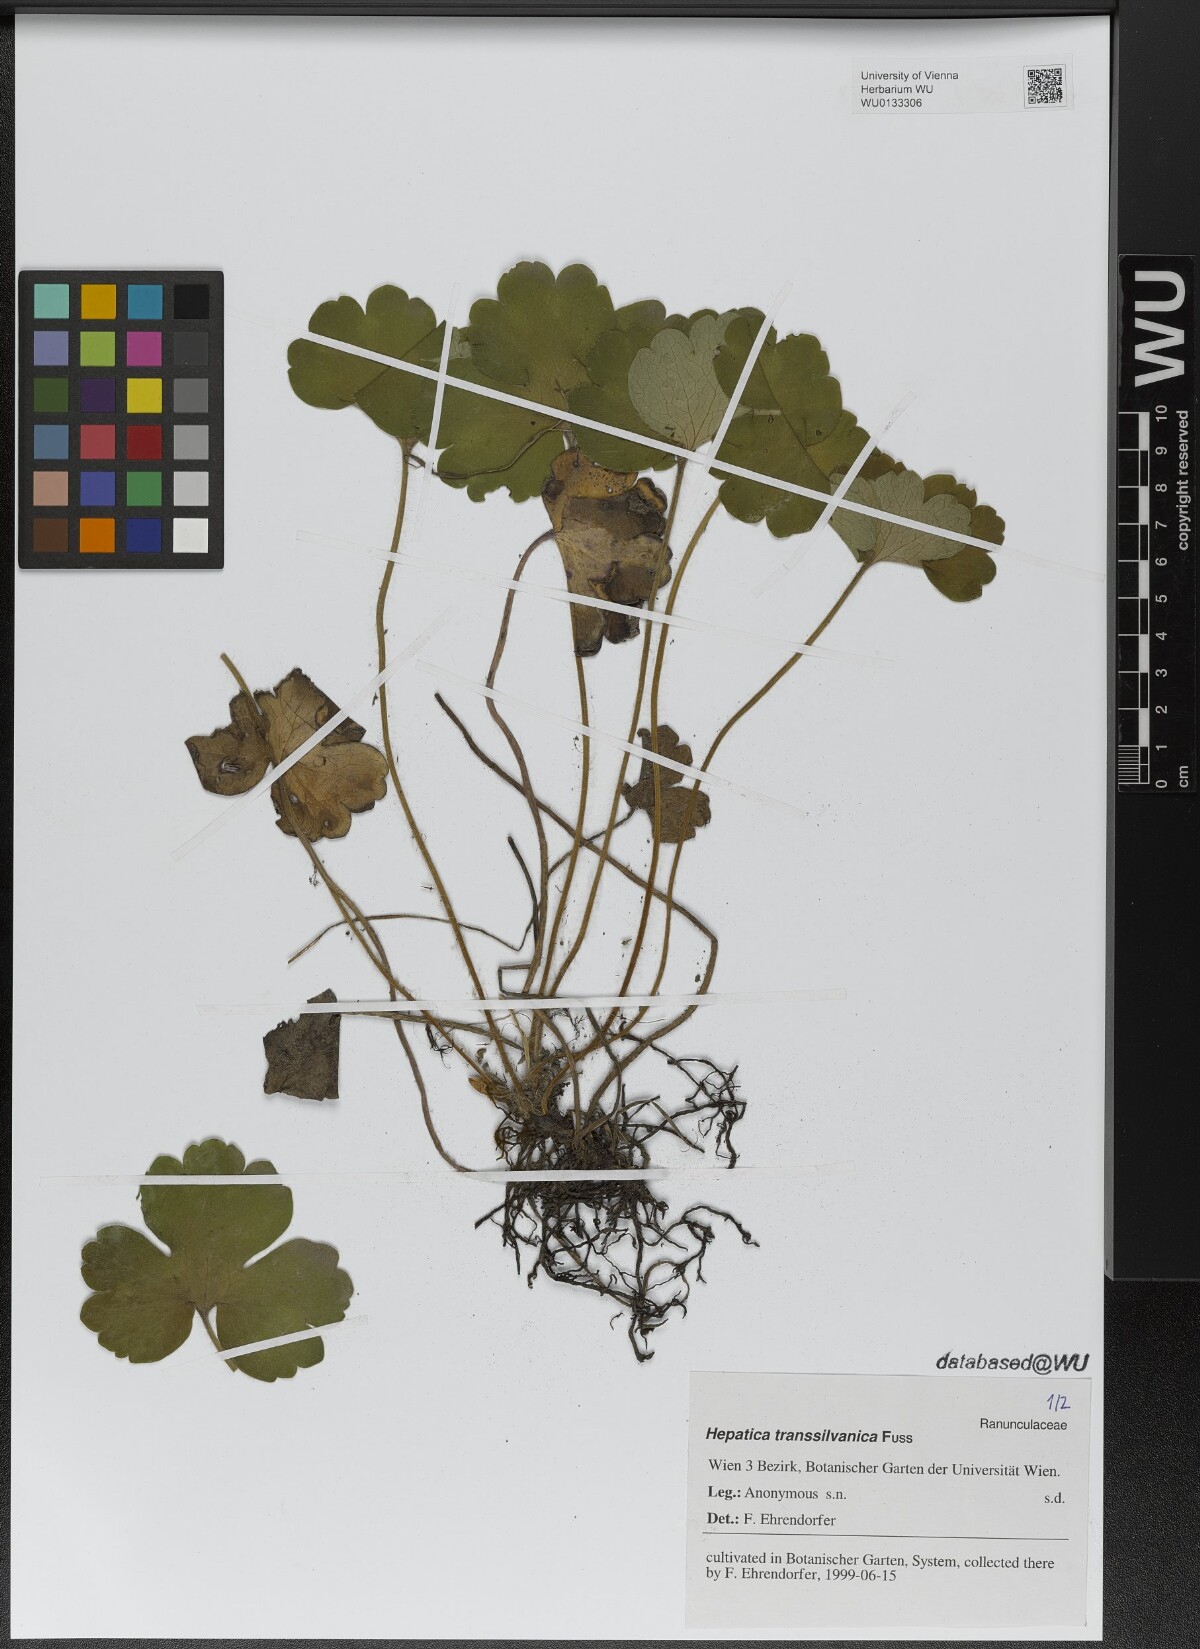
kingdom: Plantae
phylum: Tracheophyta
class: Magnoliopsida
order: Ranunculales
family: Ranunculaceae
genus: Hepatica
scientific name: Hepatica transsilvanica
